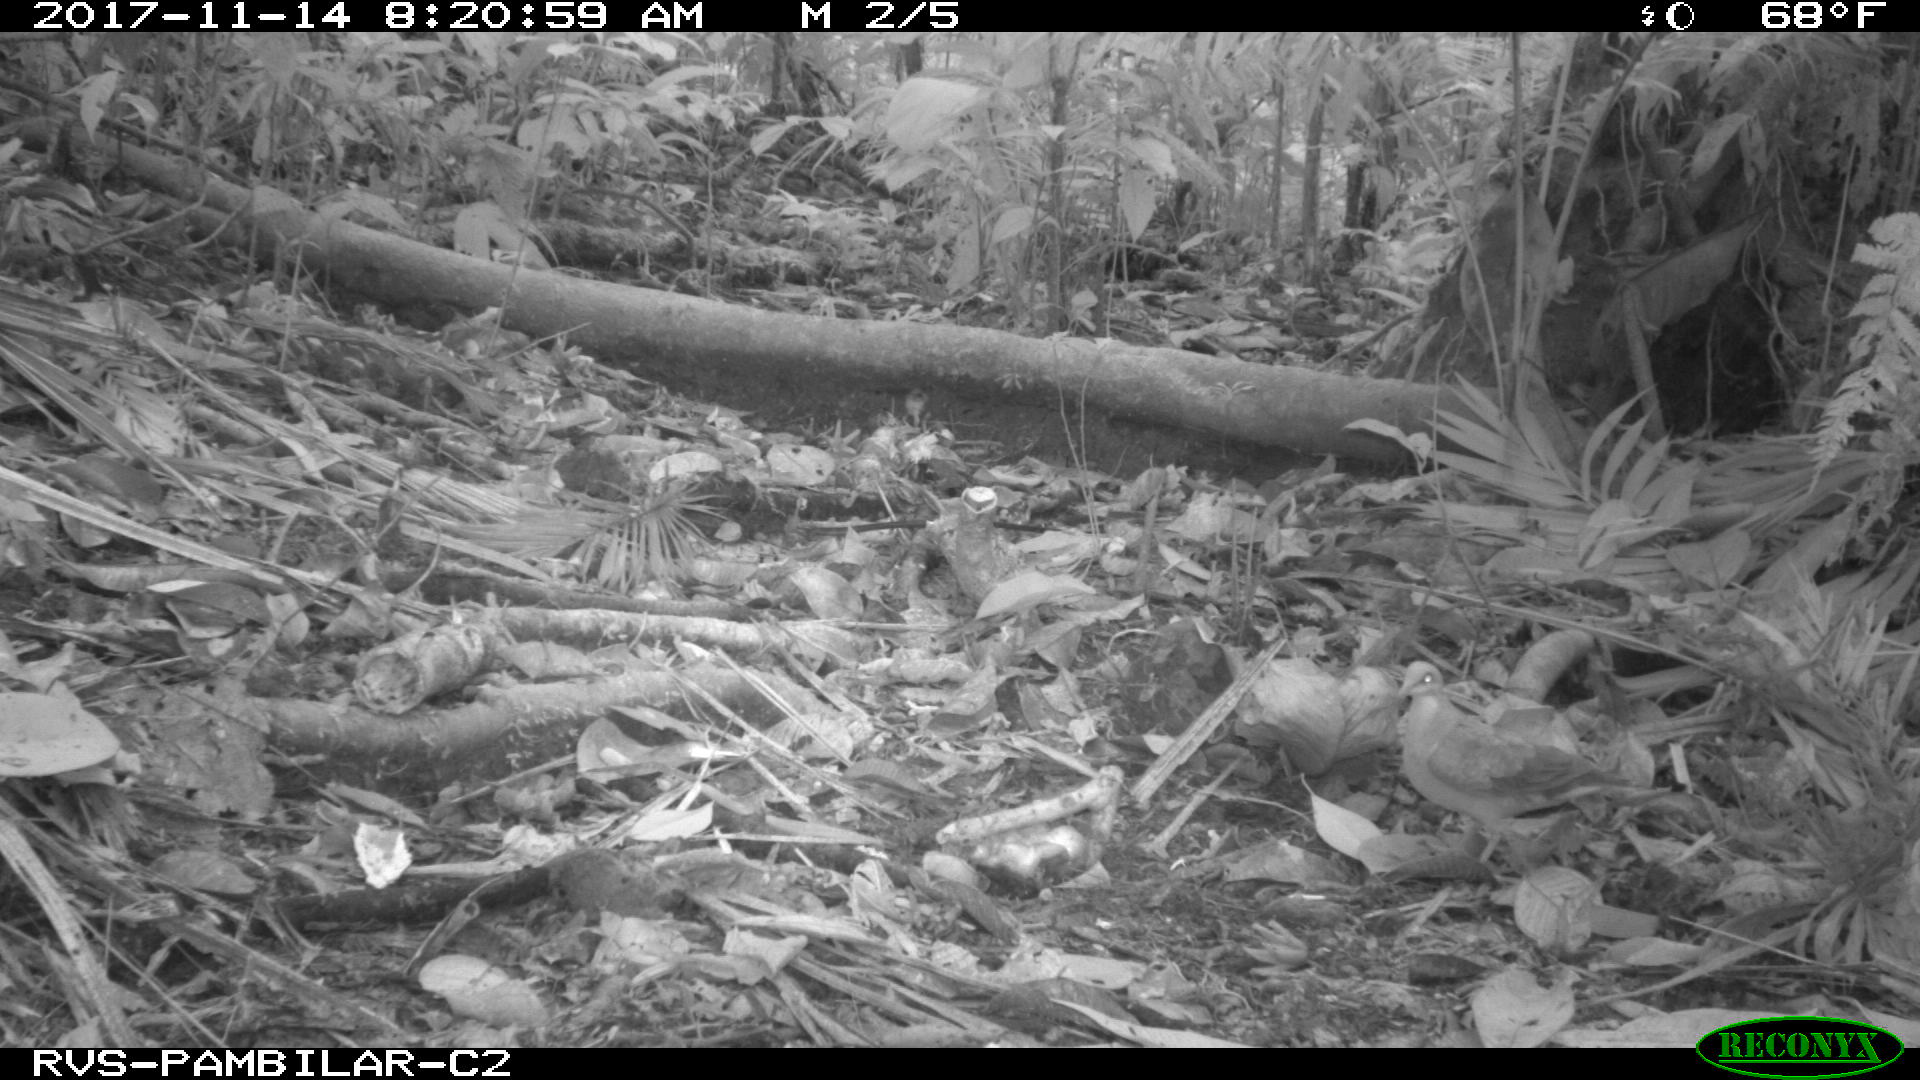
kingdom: Animalia
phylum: Chordata
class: Aves
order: Columbiformes
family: Columbidae
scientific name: Columbidae
